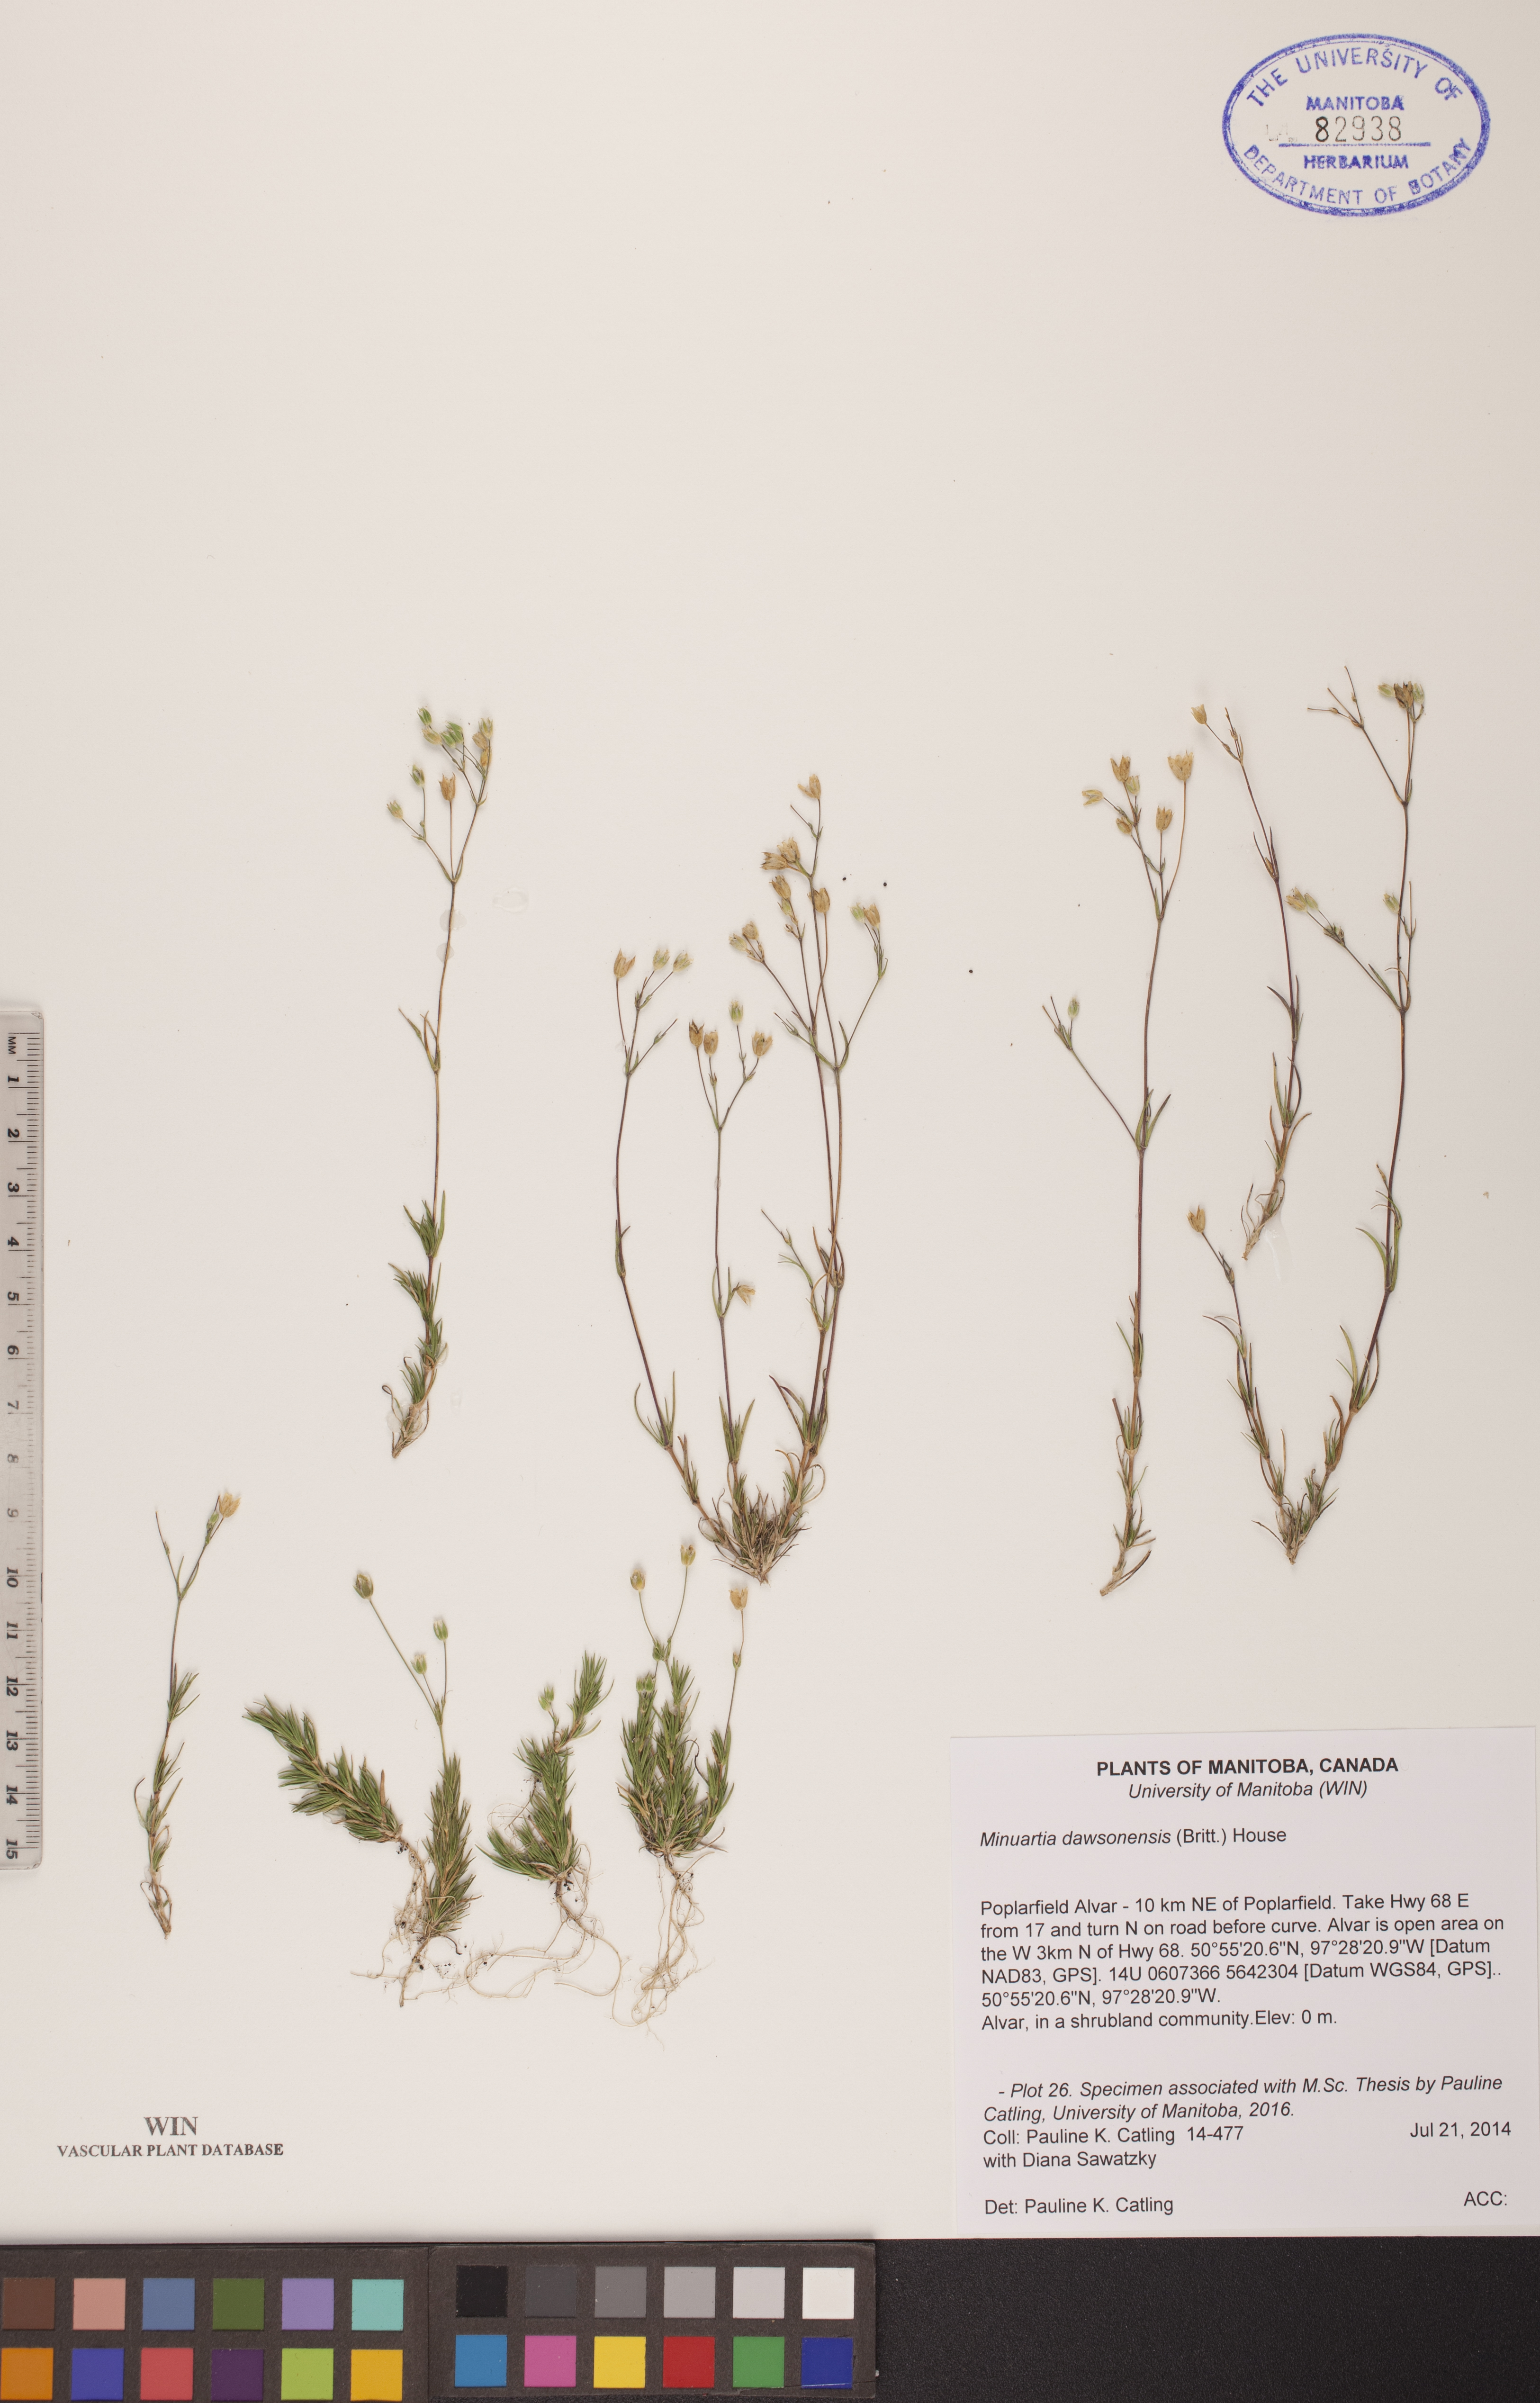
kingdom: Plantae
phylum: Tracheophyta
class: Magnoliopsida
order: Caryophyllales
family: Caryophyllaceae
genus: Sabulina
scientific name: Sabulina dawsonensis
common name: Dawson's cockle
